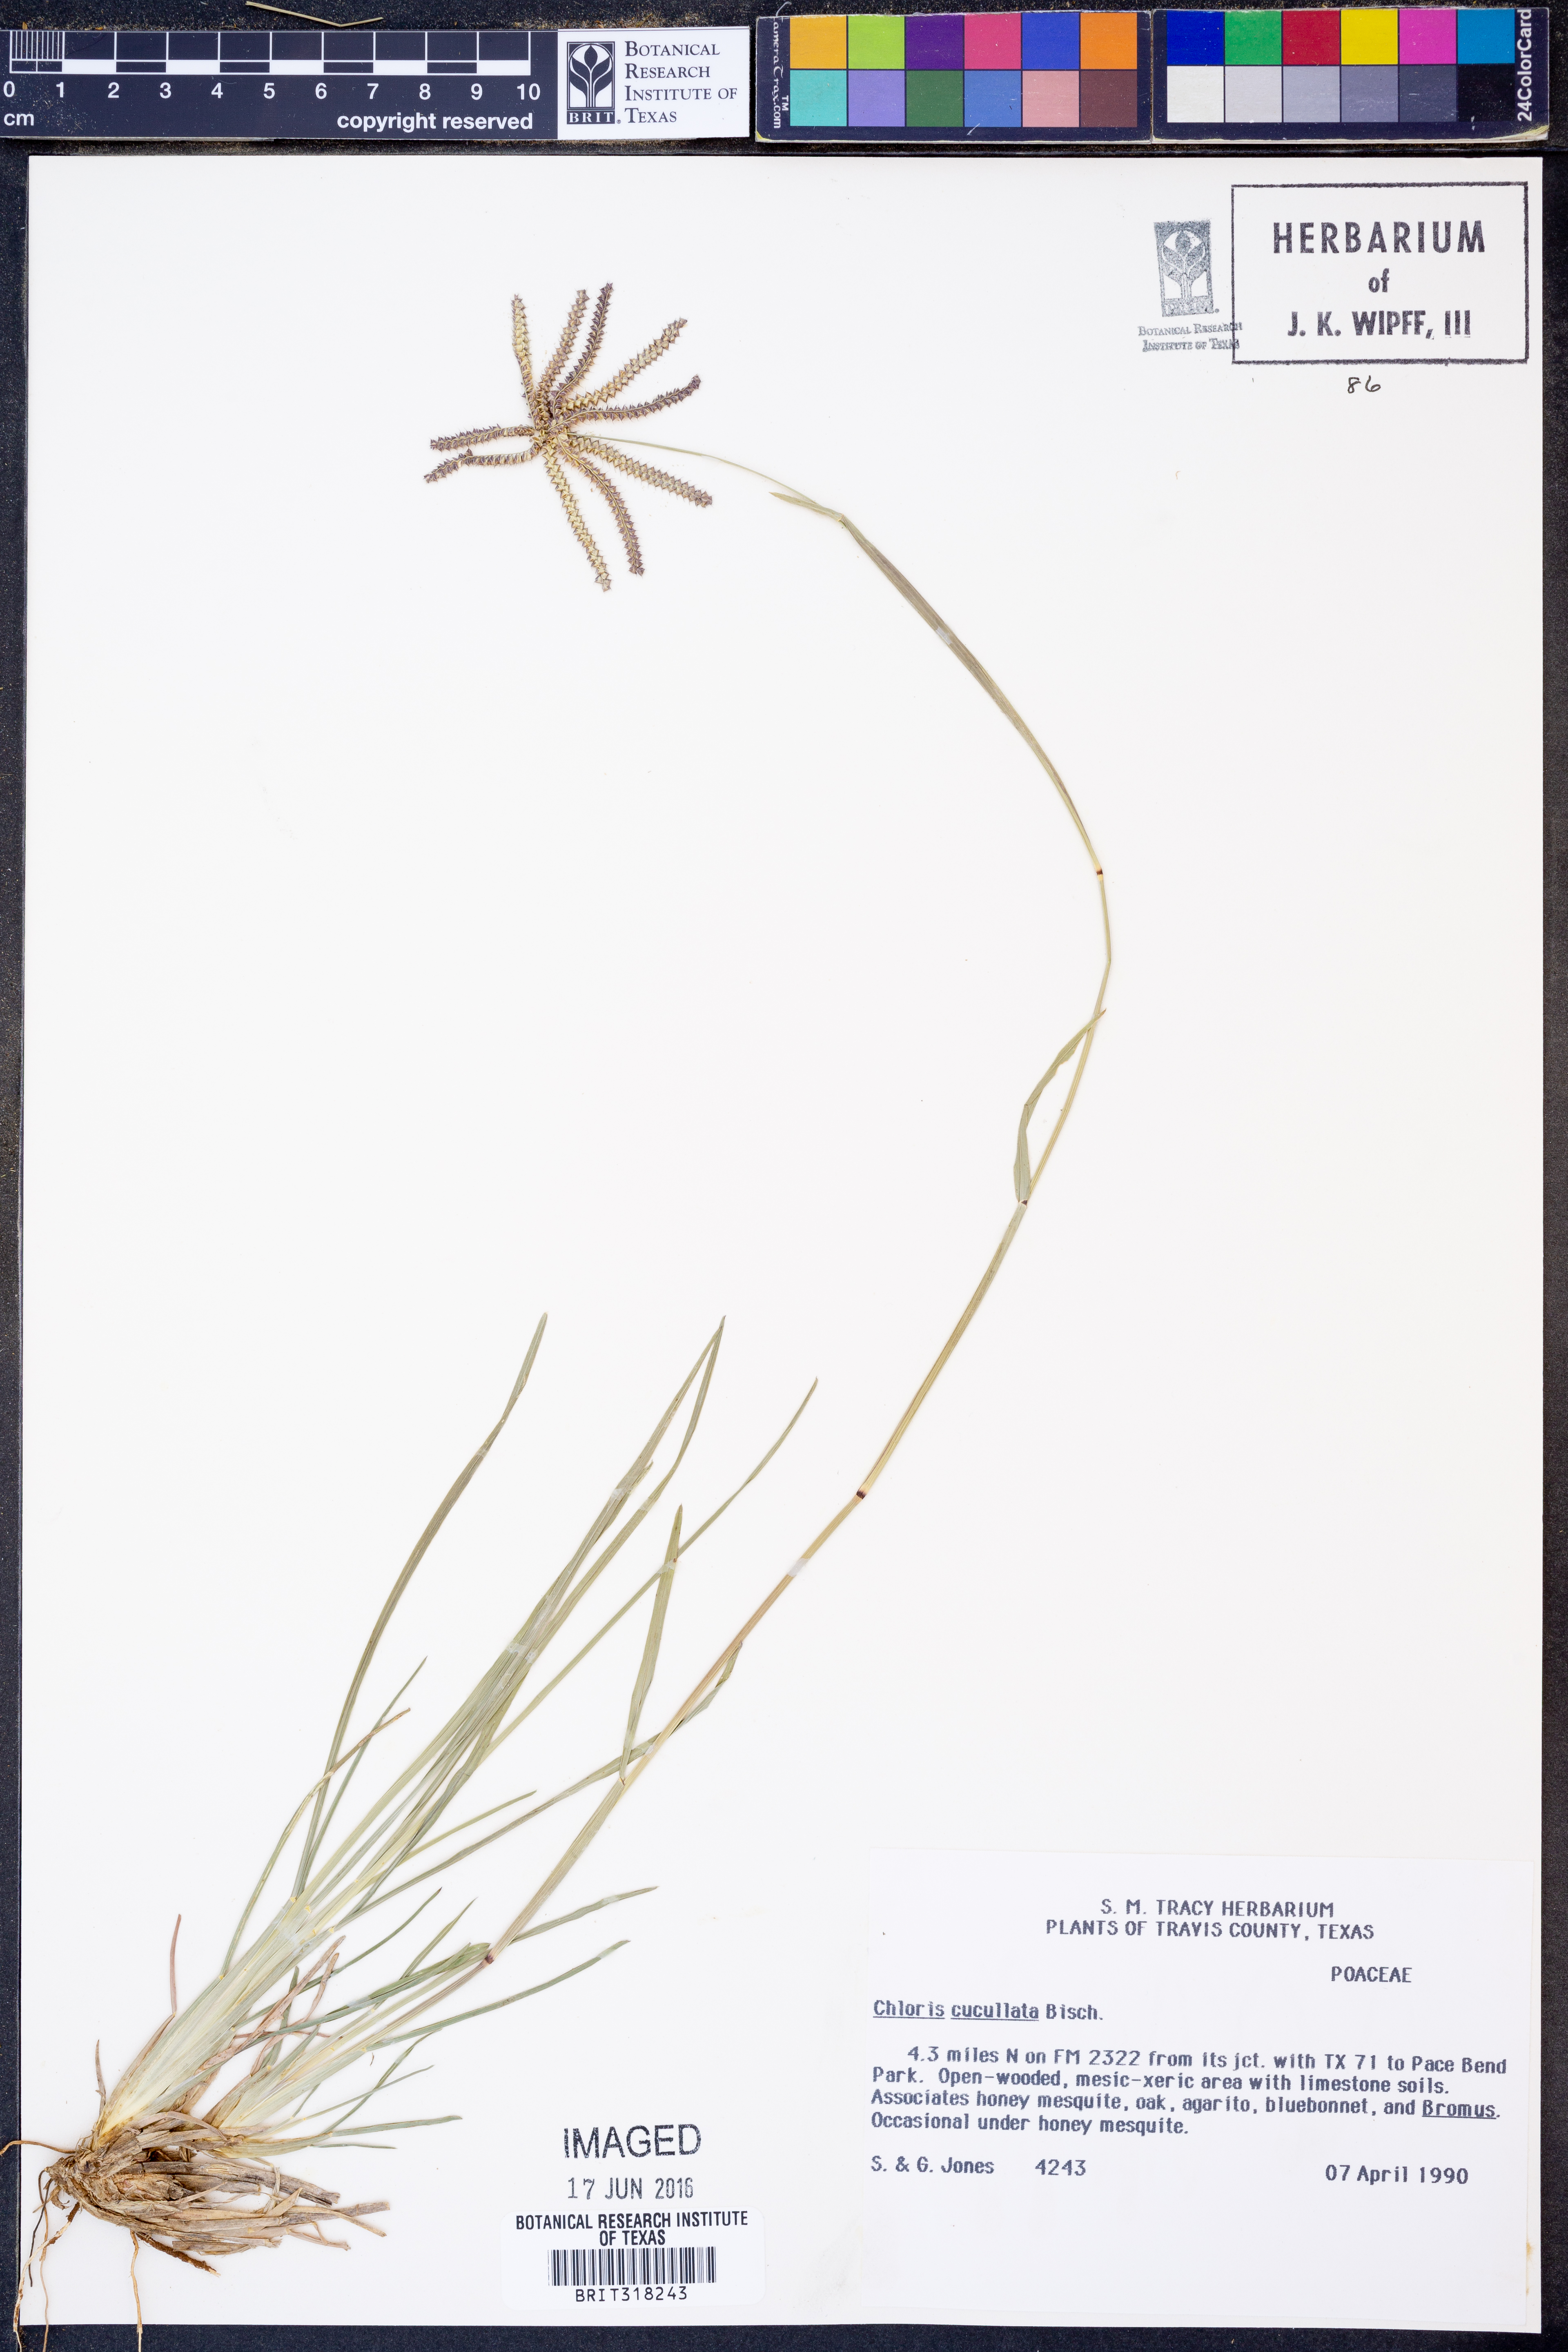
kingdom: Plantae
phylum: Tracheophyta
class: Liliopsida
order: Poales
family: Poaceae
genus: Chloris
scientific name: Chloris cucullata
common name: Hooded windmill grass
